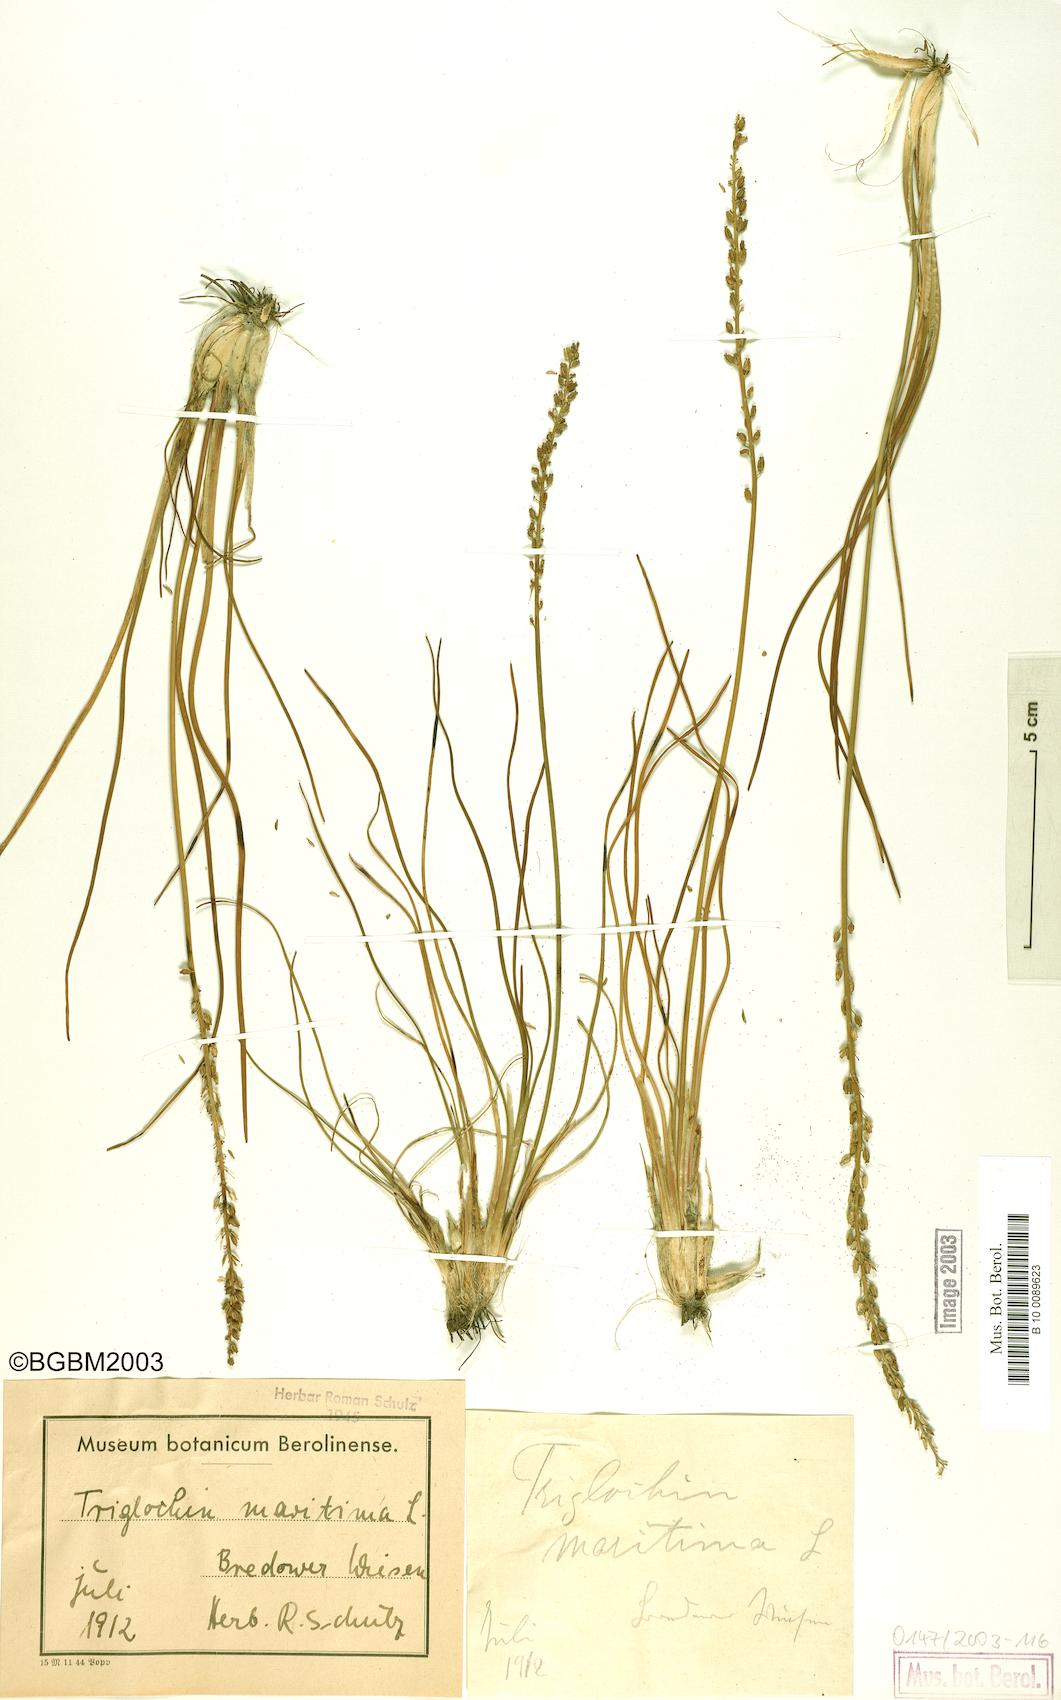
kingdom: Plantae
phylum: Tracheophyta
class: Liliopsida
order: Alismatales
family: Juncaginaceae
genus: Triglochin
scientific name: Triglochin maritima
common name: Sea arrowgrass
